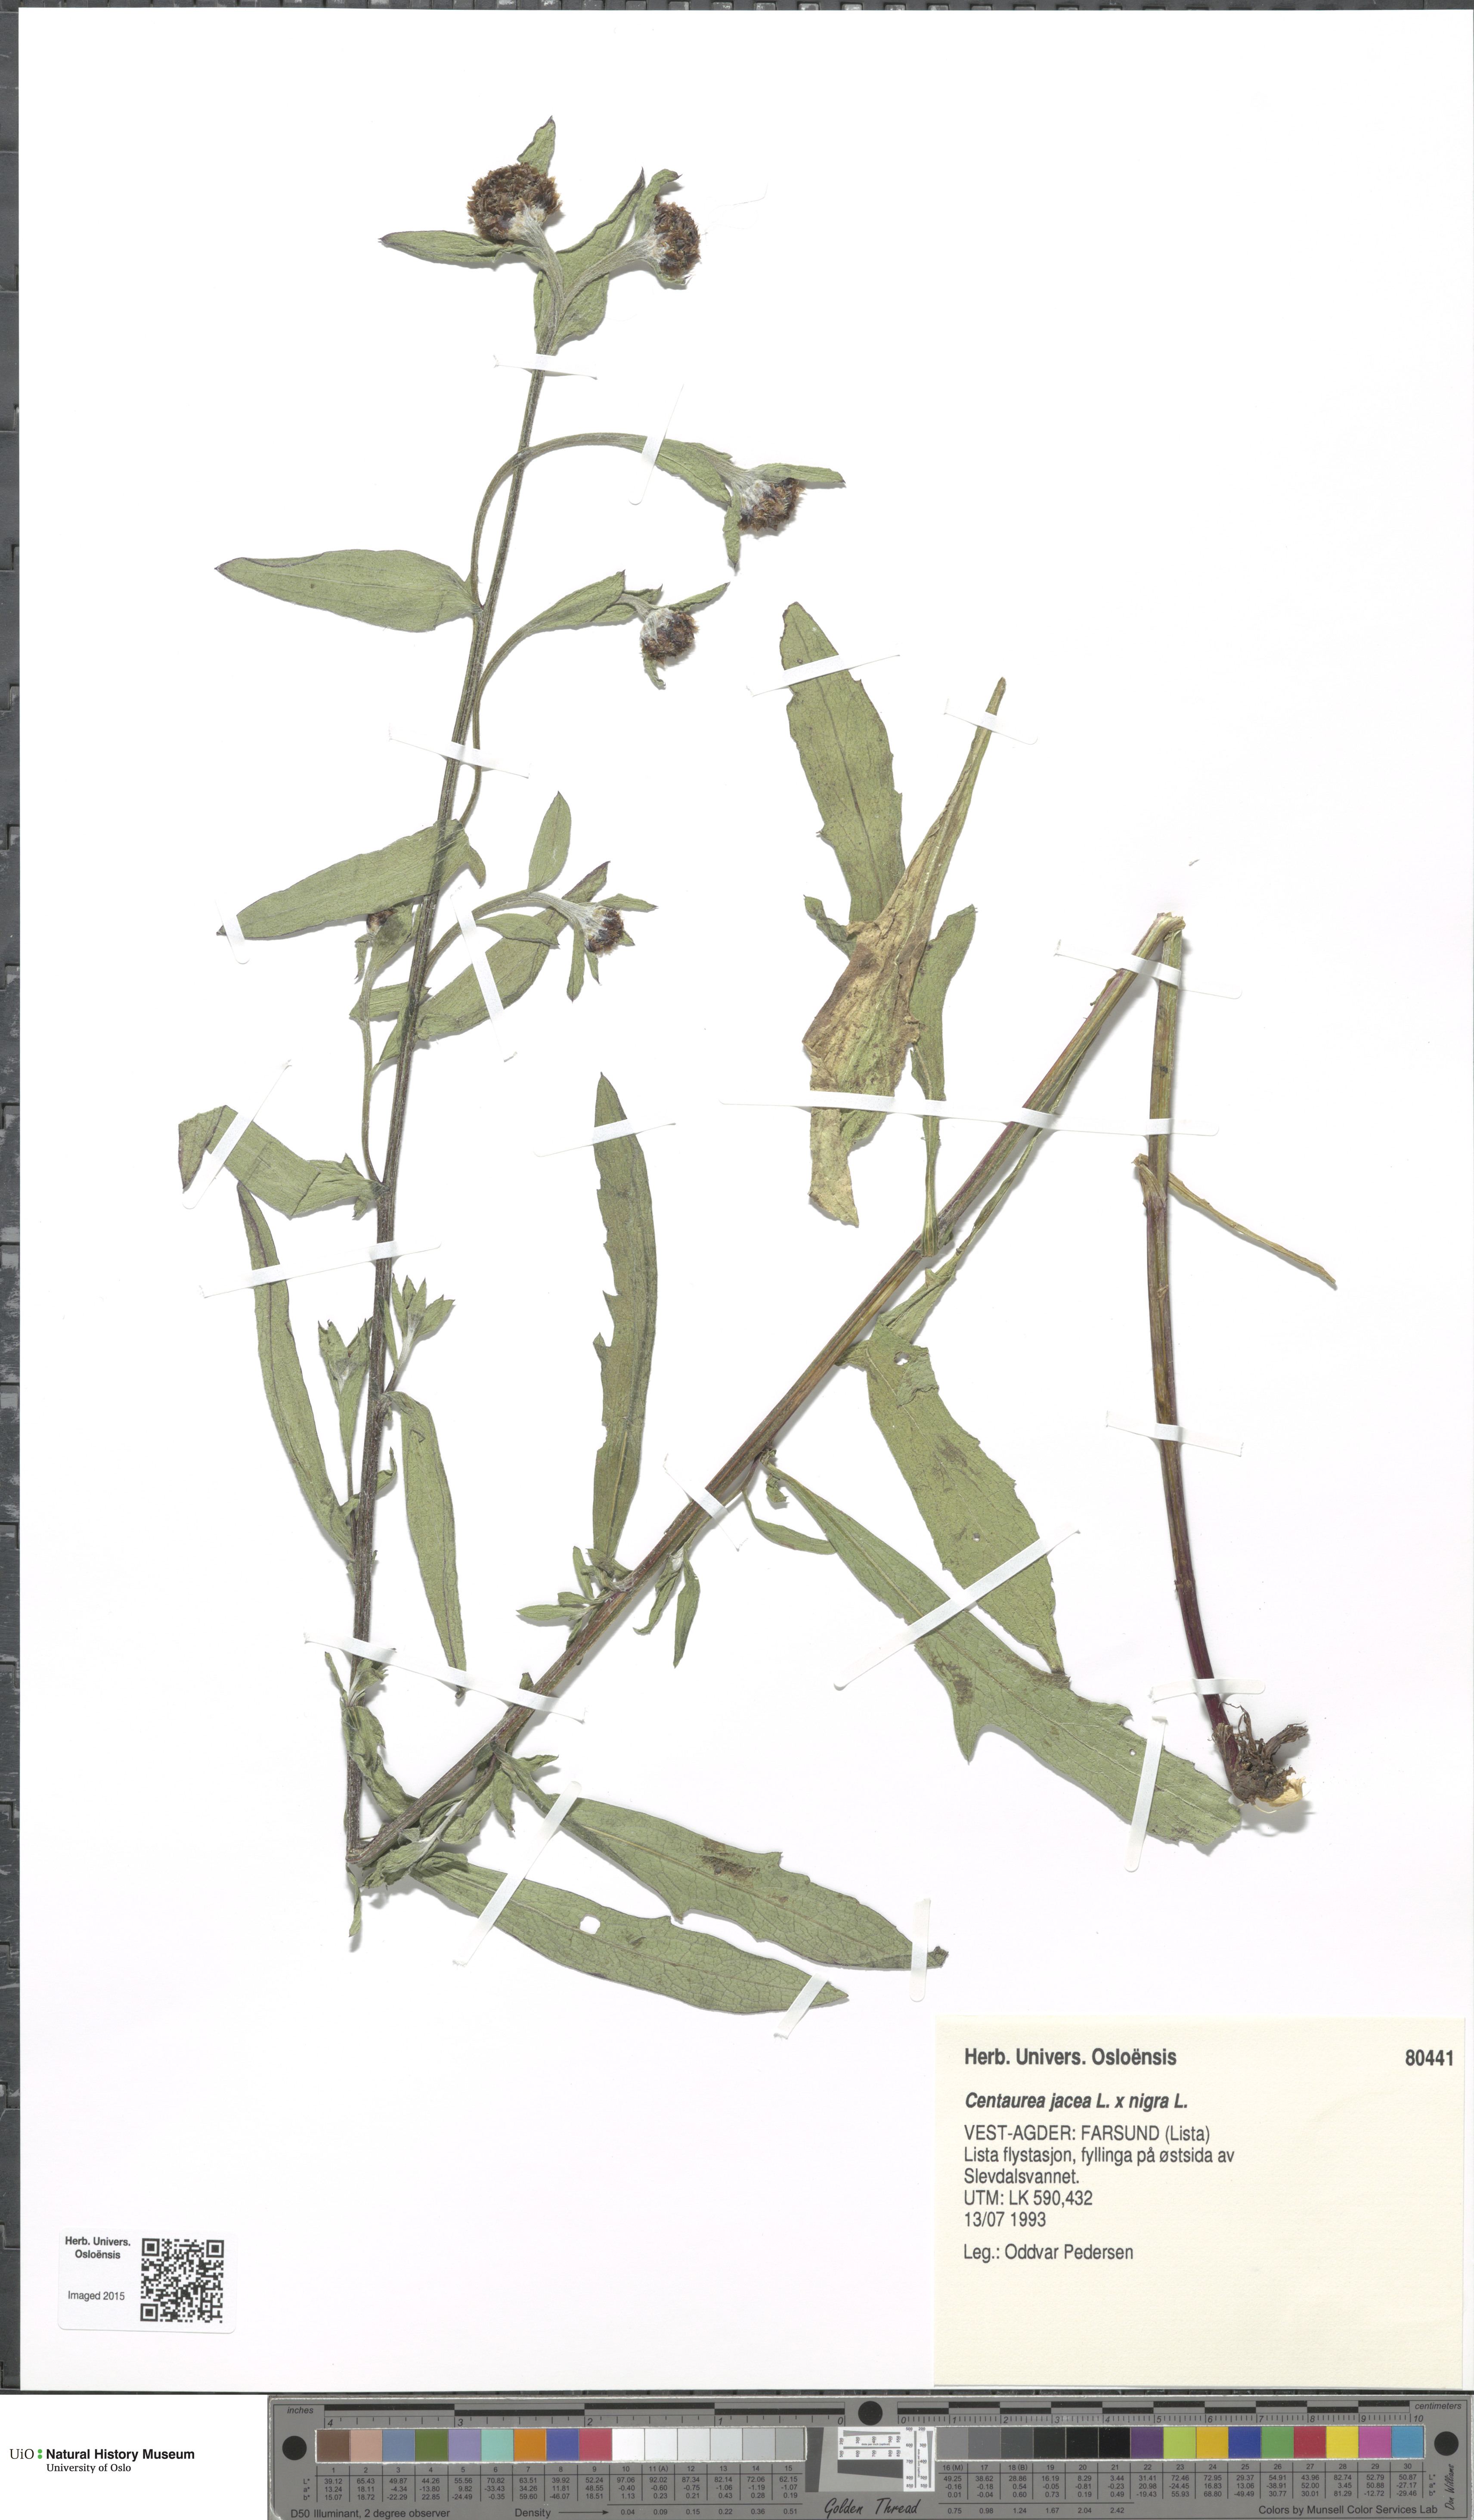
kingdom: Plantae
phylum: Tracheophyta
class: Magnoliopsida
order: Asterales
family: Asteraceae
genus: Centaurea
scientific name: Centaurea
